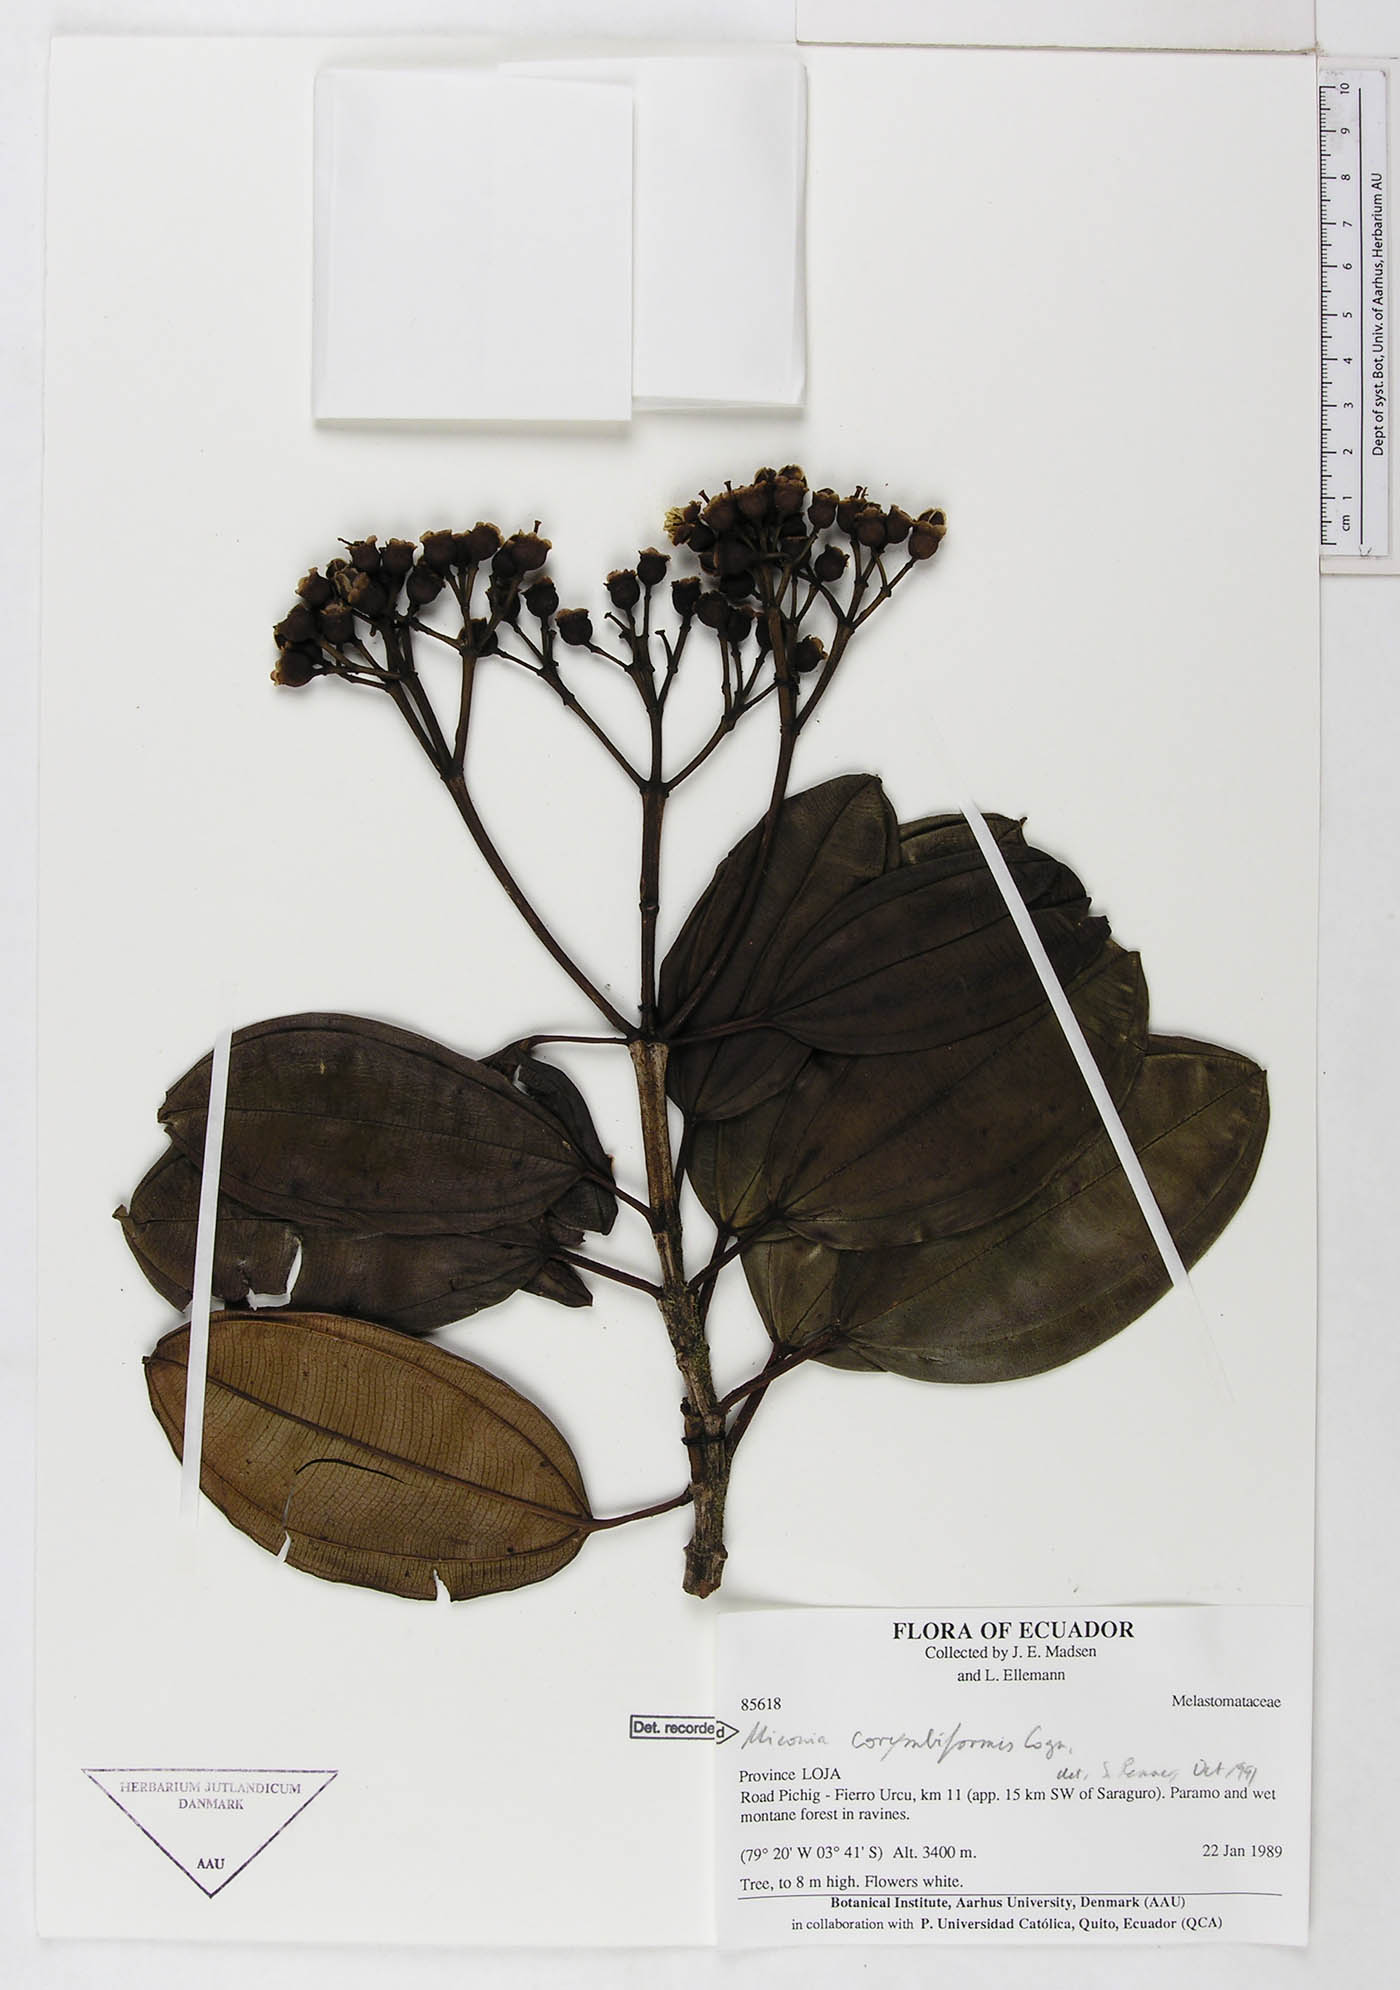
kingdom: Plantae
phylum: Tracheophyta
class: Magnoliopsida
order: Myrtales
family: Melastomataceae
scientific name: Melastomataceae
